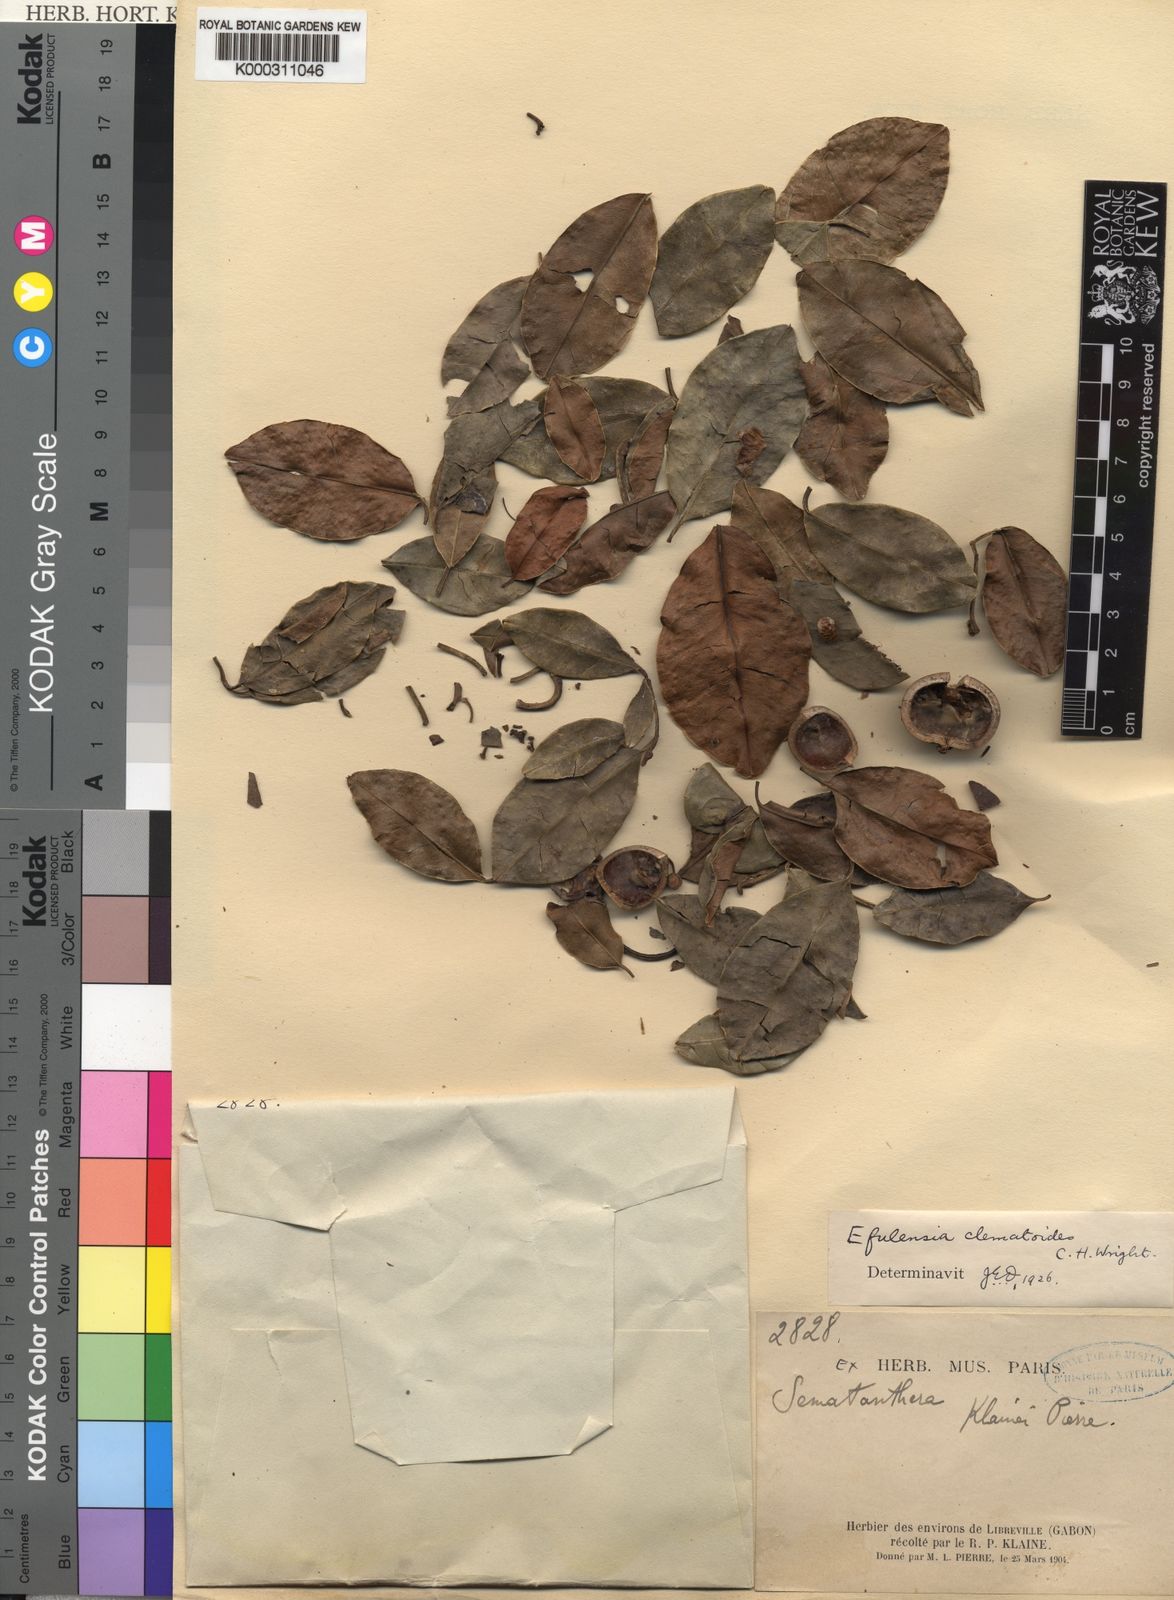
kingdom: Plantae
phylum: Tracheophyta
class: Magnoliopsida
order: Malpighiales
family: Passifloraceae
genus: Efulensia
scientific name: Efulensia clematoides
